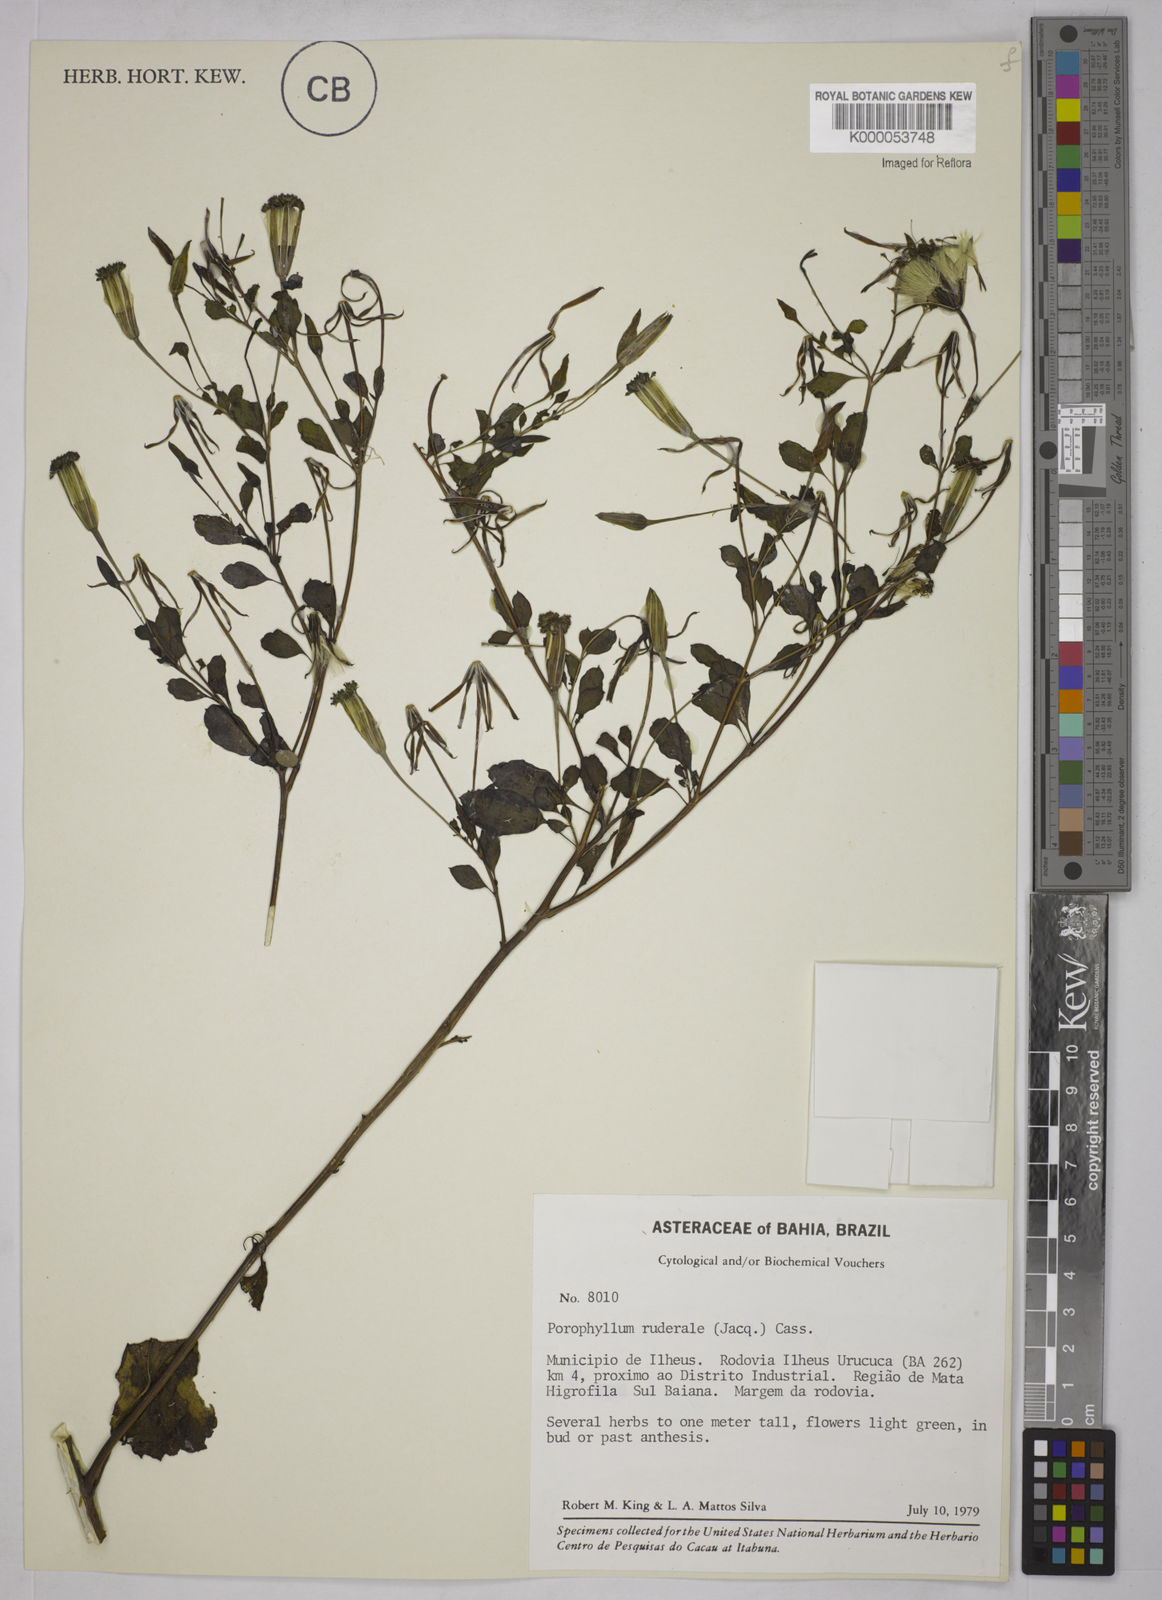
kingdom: Plantae
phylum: Tracheophyta
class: Magnoliopsida
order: Asterales
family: Asteraceae
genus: Porophyllum
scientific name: Porophyllum ruderale
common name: Yerba porosa
